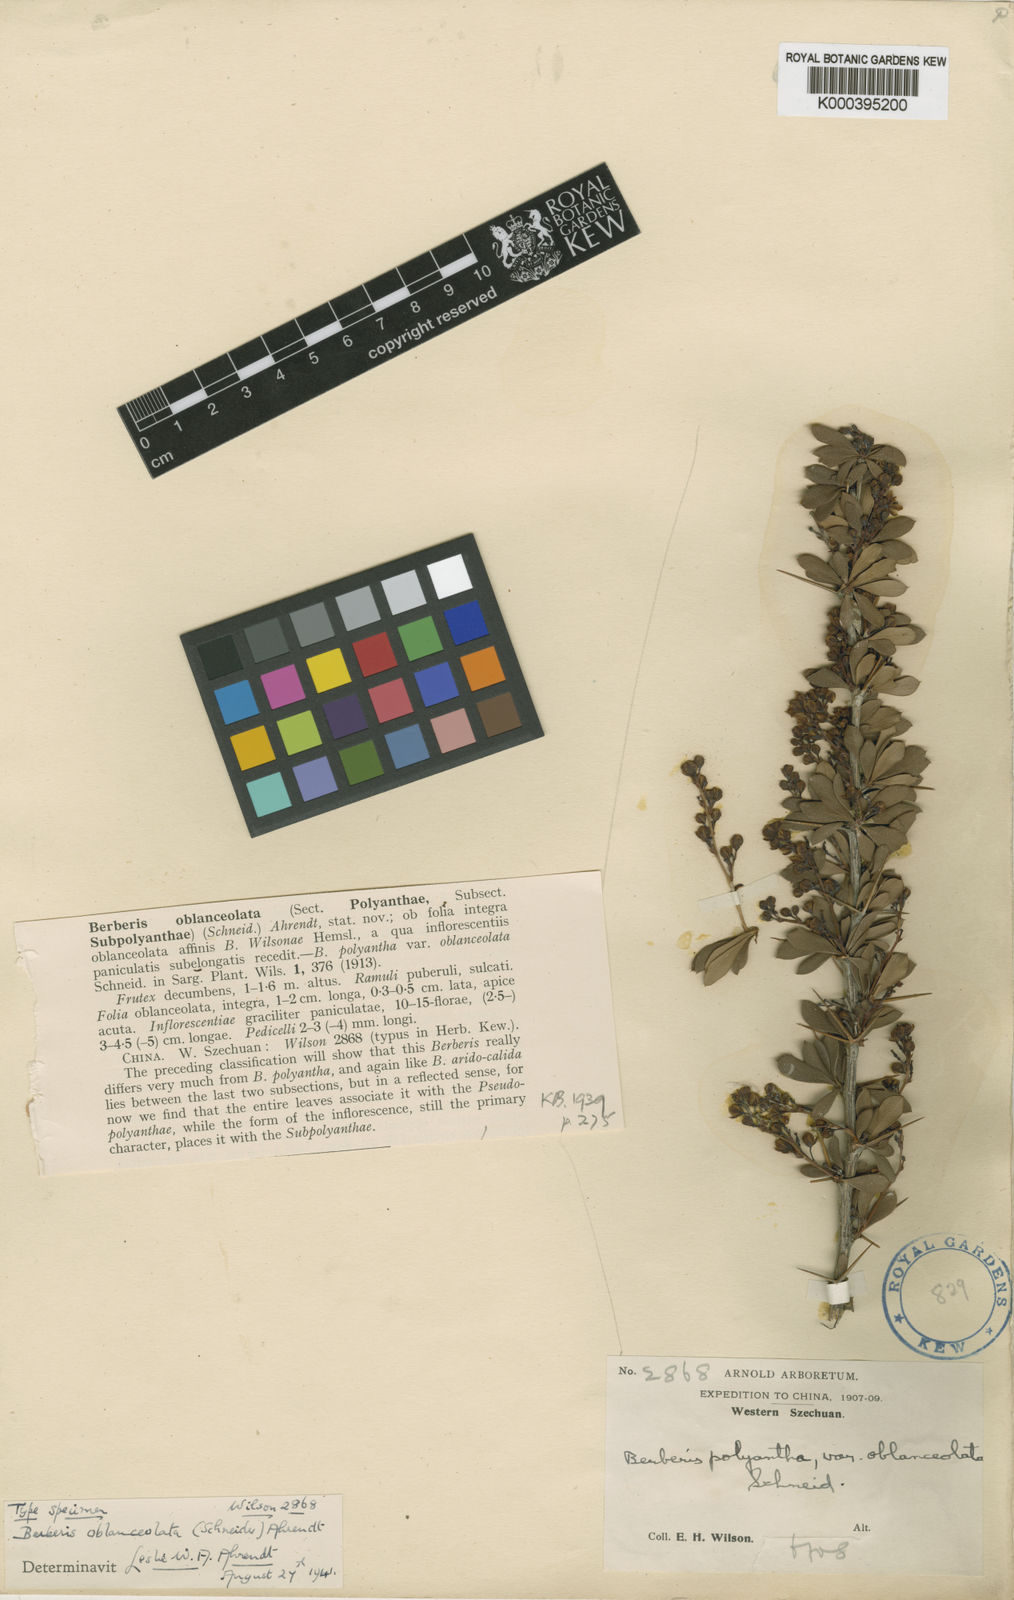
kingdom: Plantae
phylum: Tracheophyta
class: Magnoliopsida
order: Ranunculales
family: Berberidaceae
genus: Berberis
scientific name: Berberis prattii
